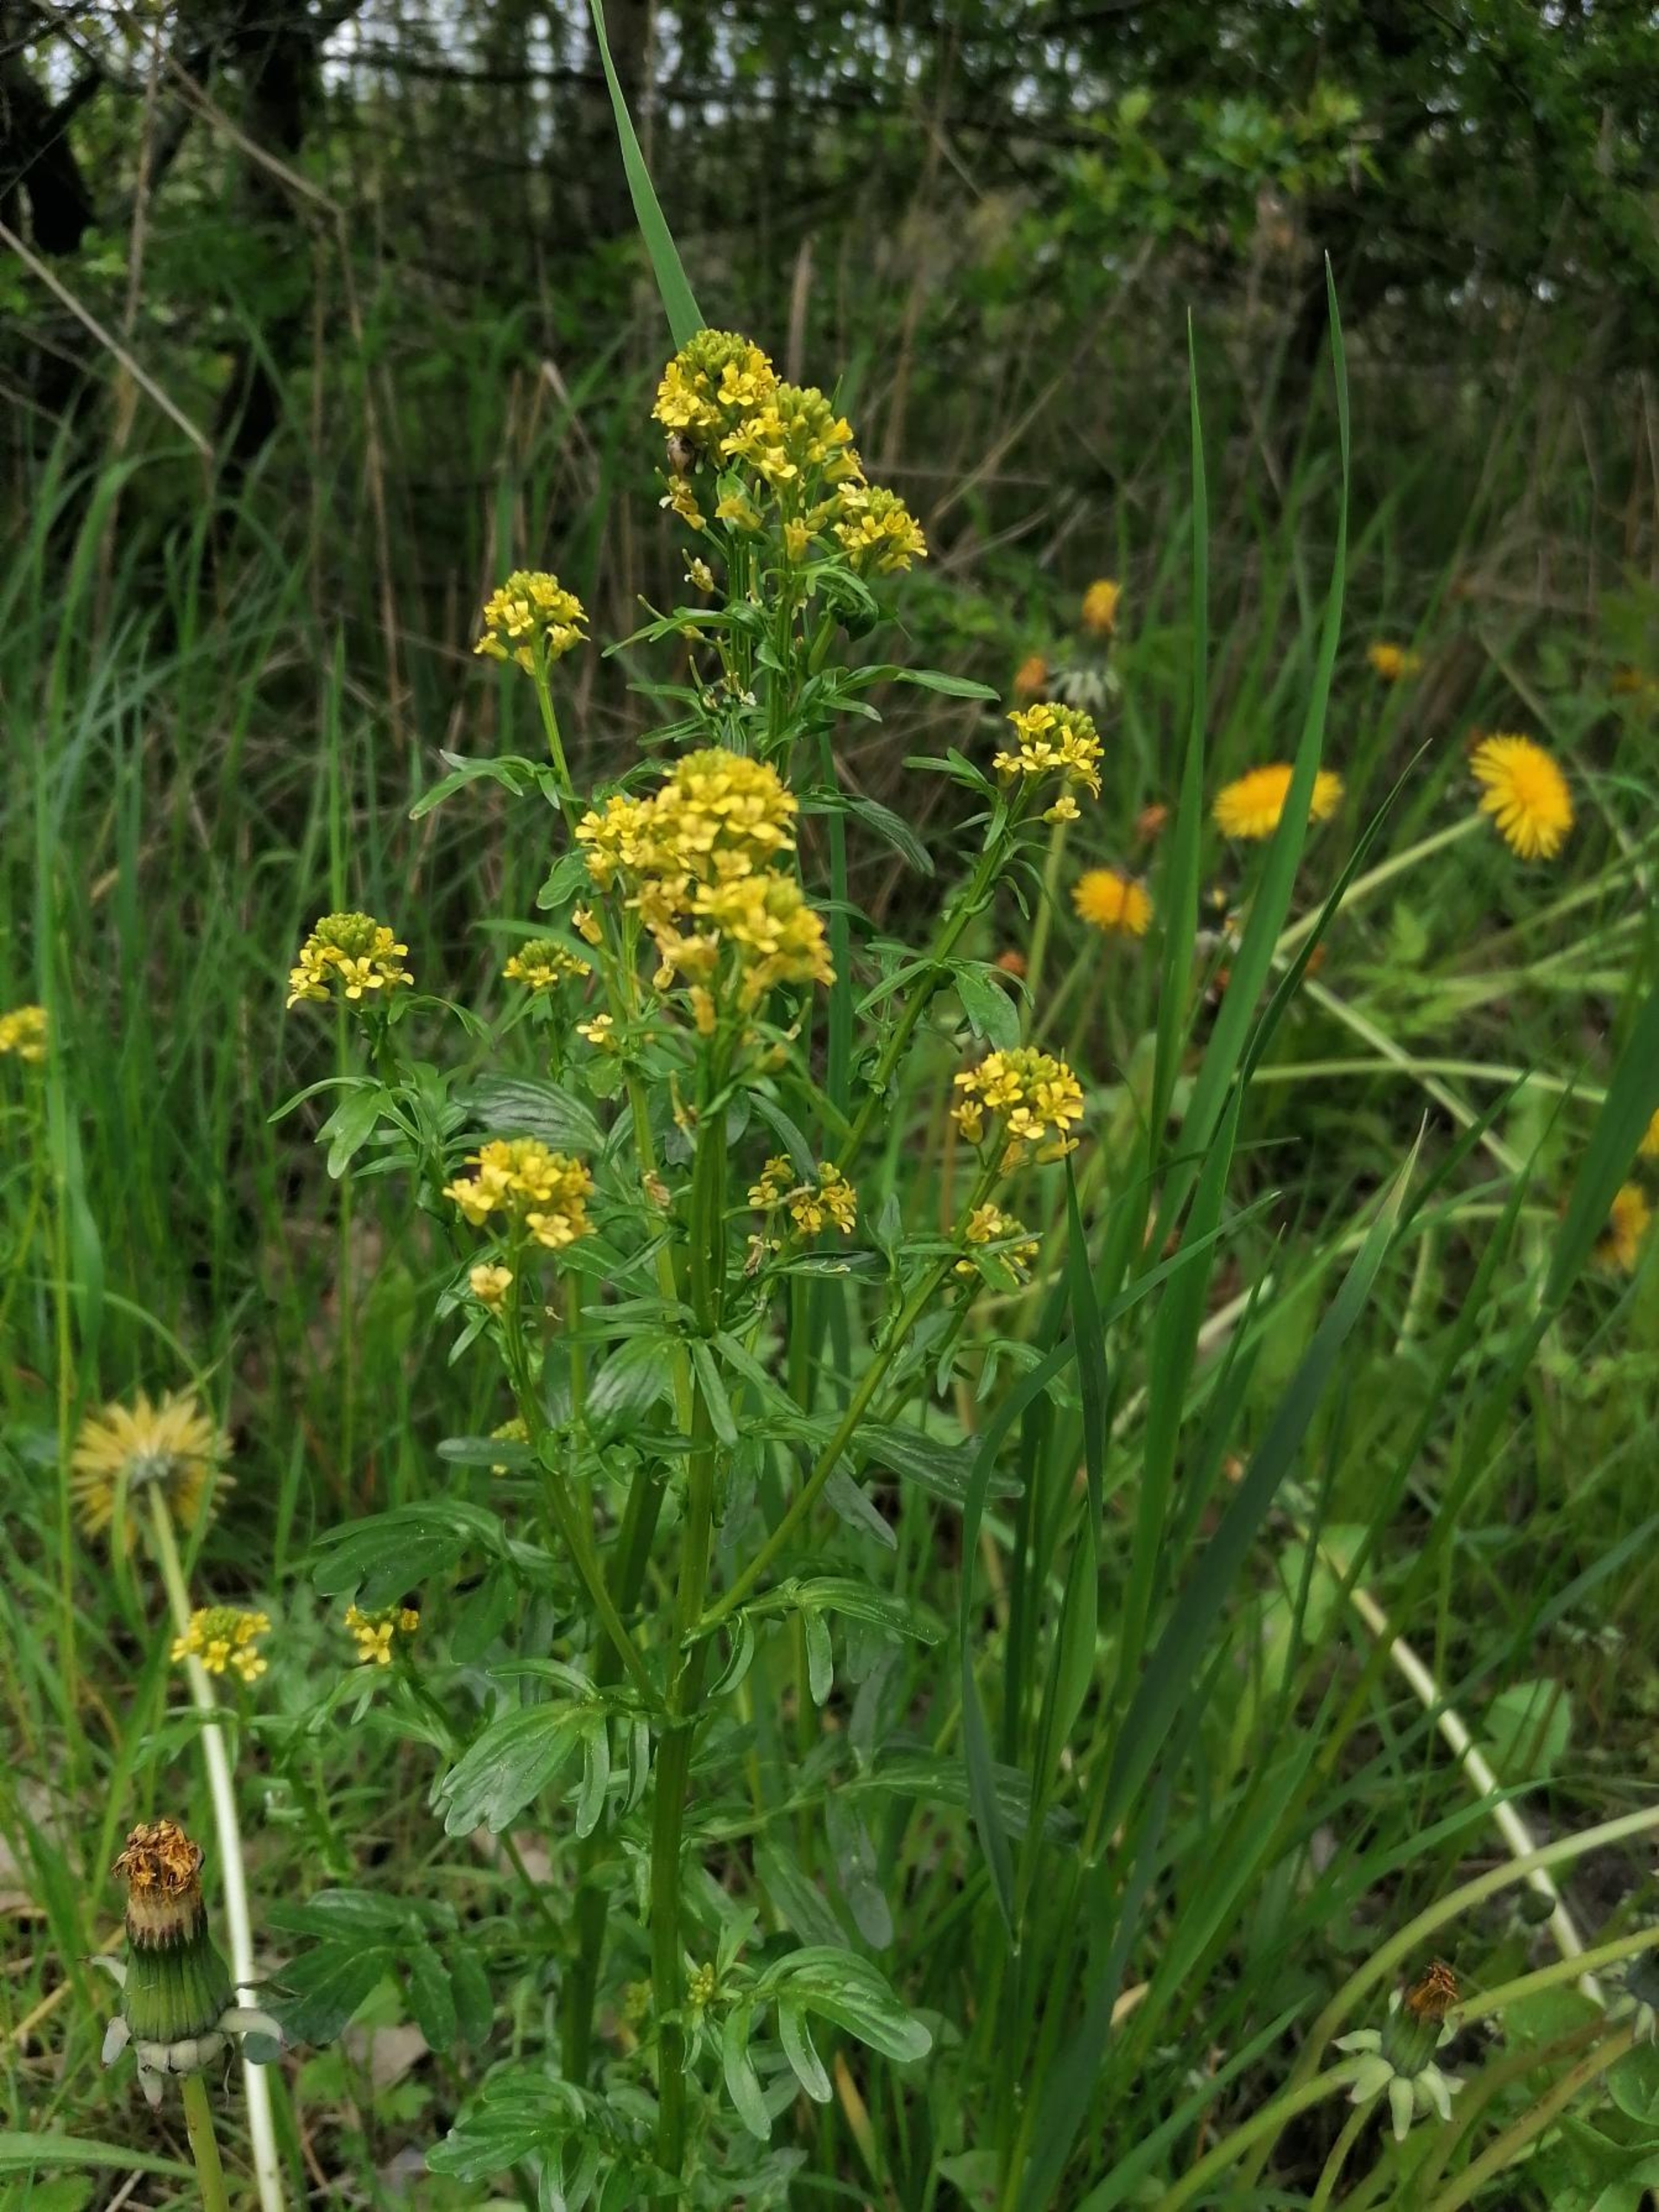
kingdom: Plantae
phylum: Tracheophyta
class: Magnoliopsida
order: Brassicales
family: Brassicaceae
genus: Barbarea
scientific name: Barbarea intermedia
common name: Randhåret vinterkarse
